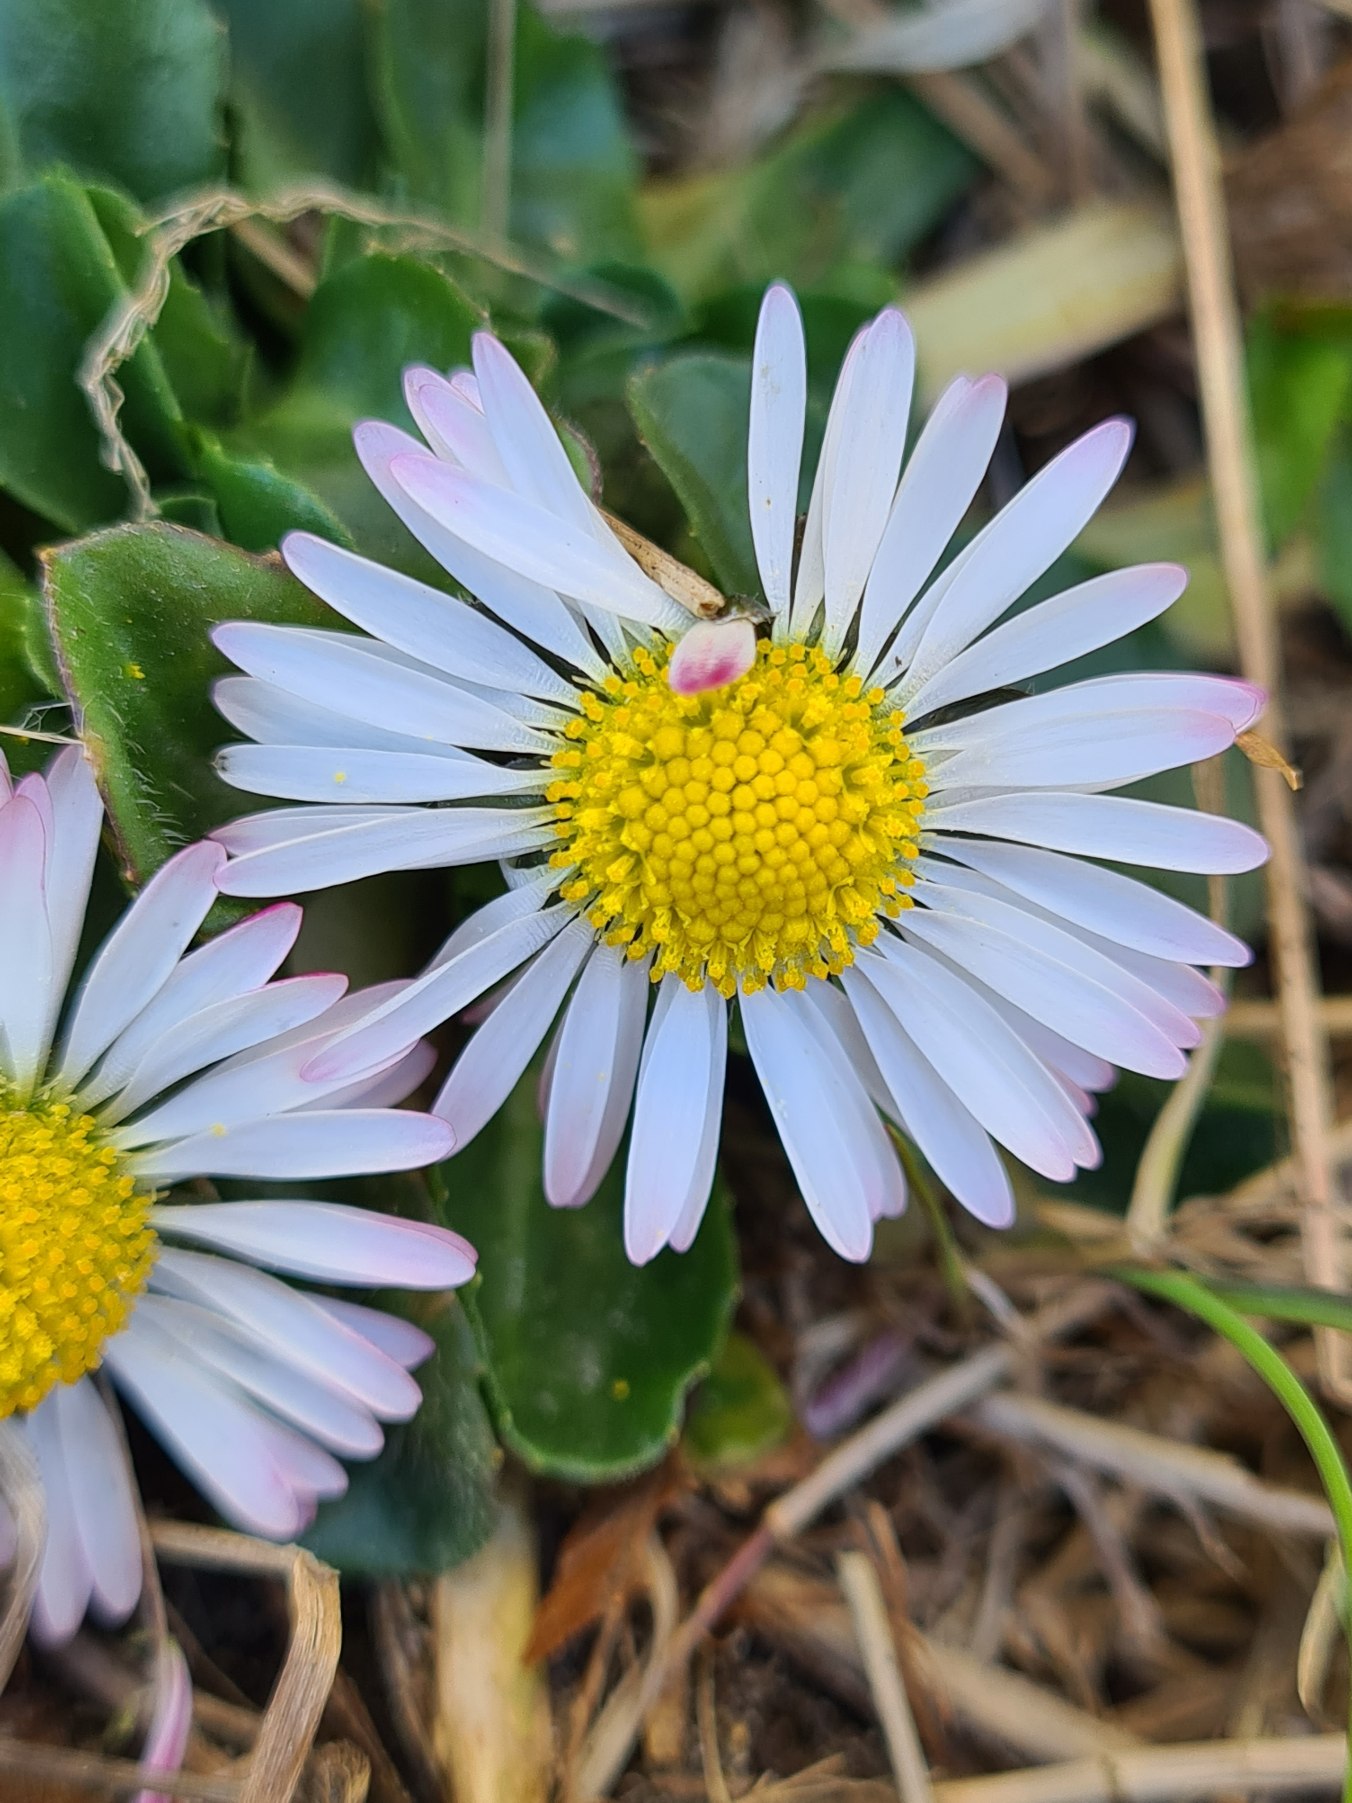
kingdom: Plantae
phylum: Tracheophyta
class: Magnoliopsida
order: Asterales
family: Asteraceae
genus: Bellis
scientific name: Bellis perennis
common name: Tusindfryd
